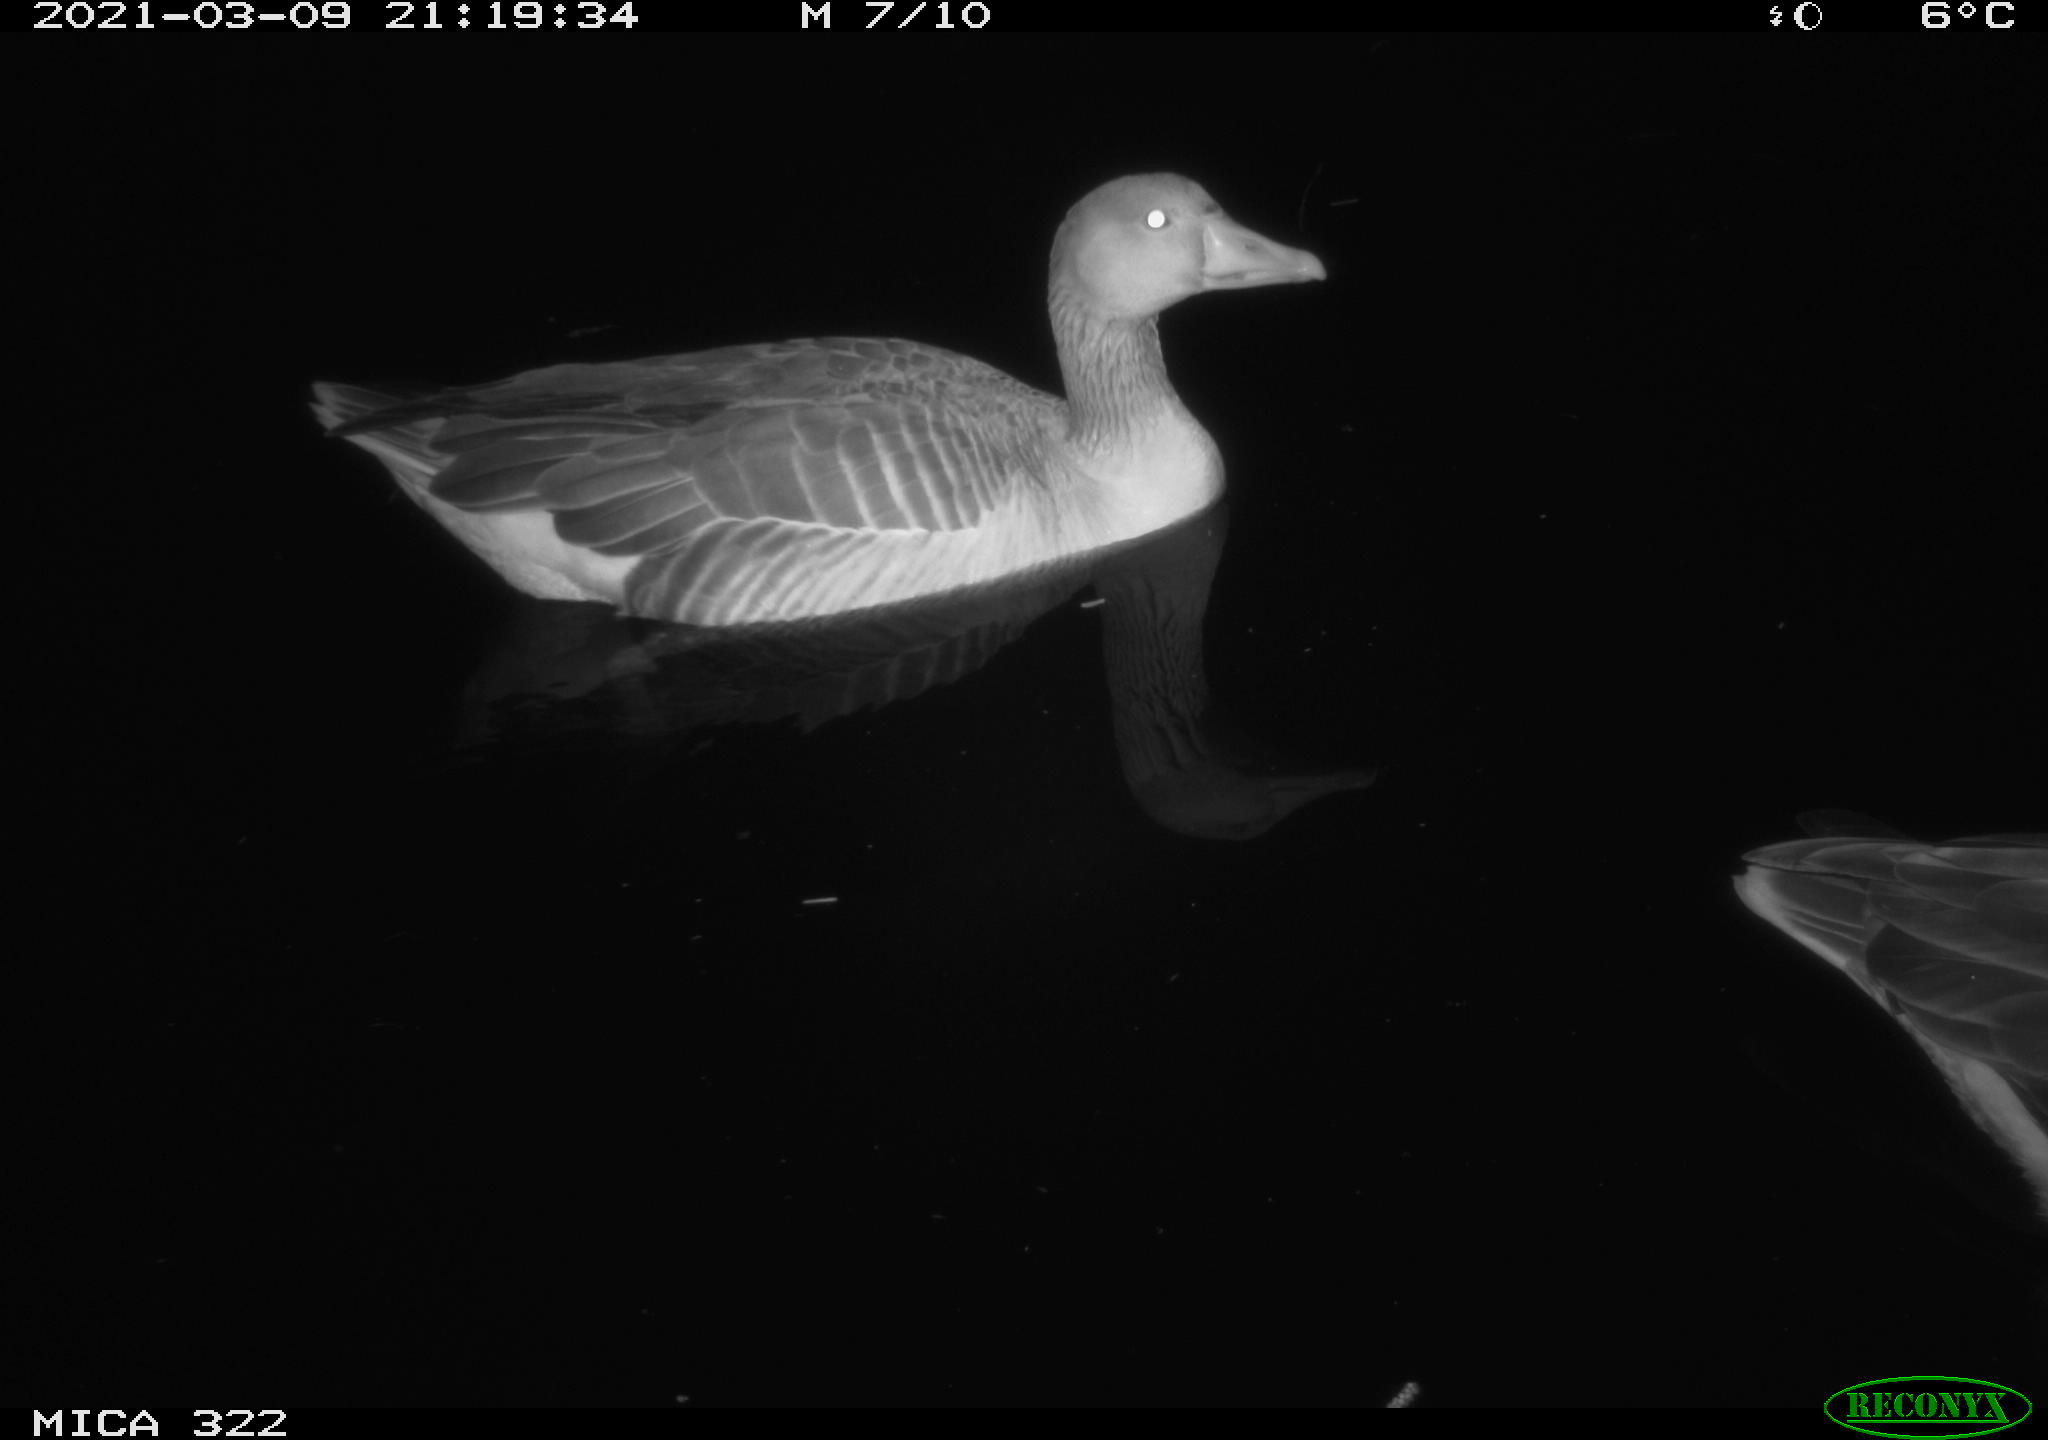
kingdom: Animalia
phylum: Chordata
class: Aves
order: Anseriformes
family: Anatidae
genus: Anser
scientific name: Anser anser
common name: Greylag goose
